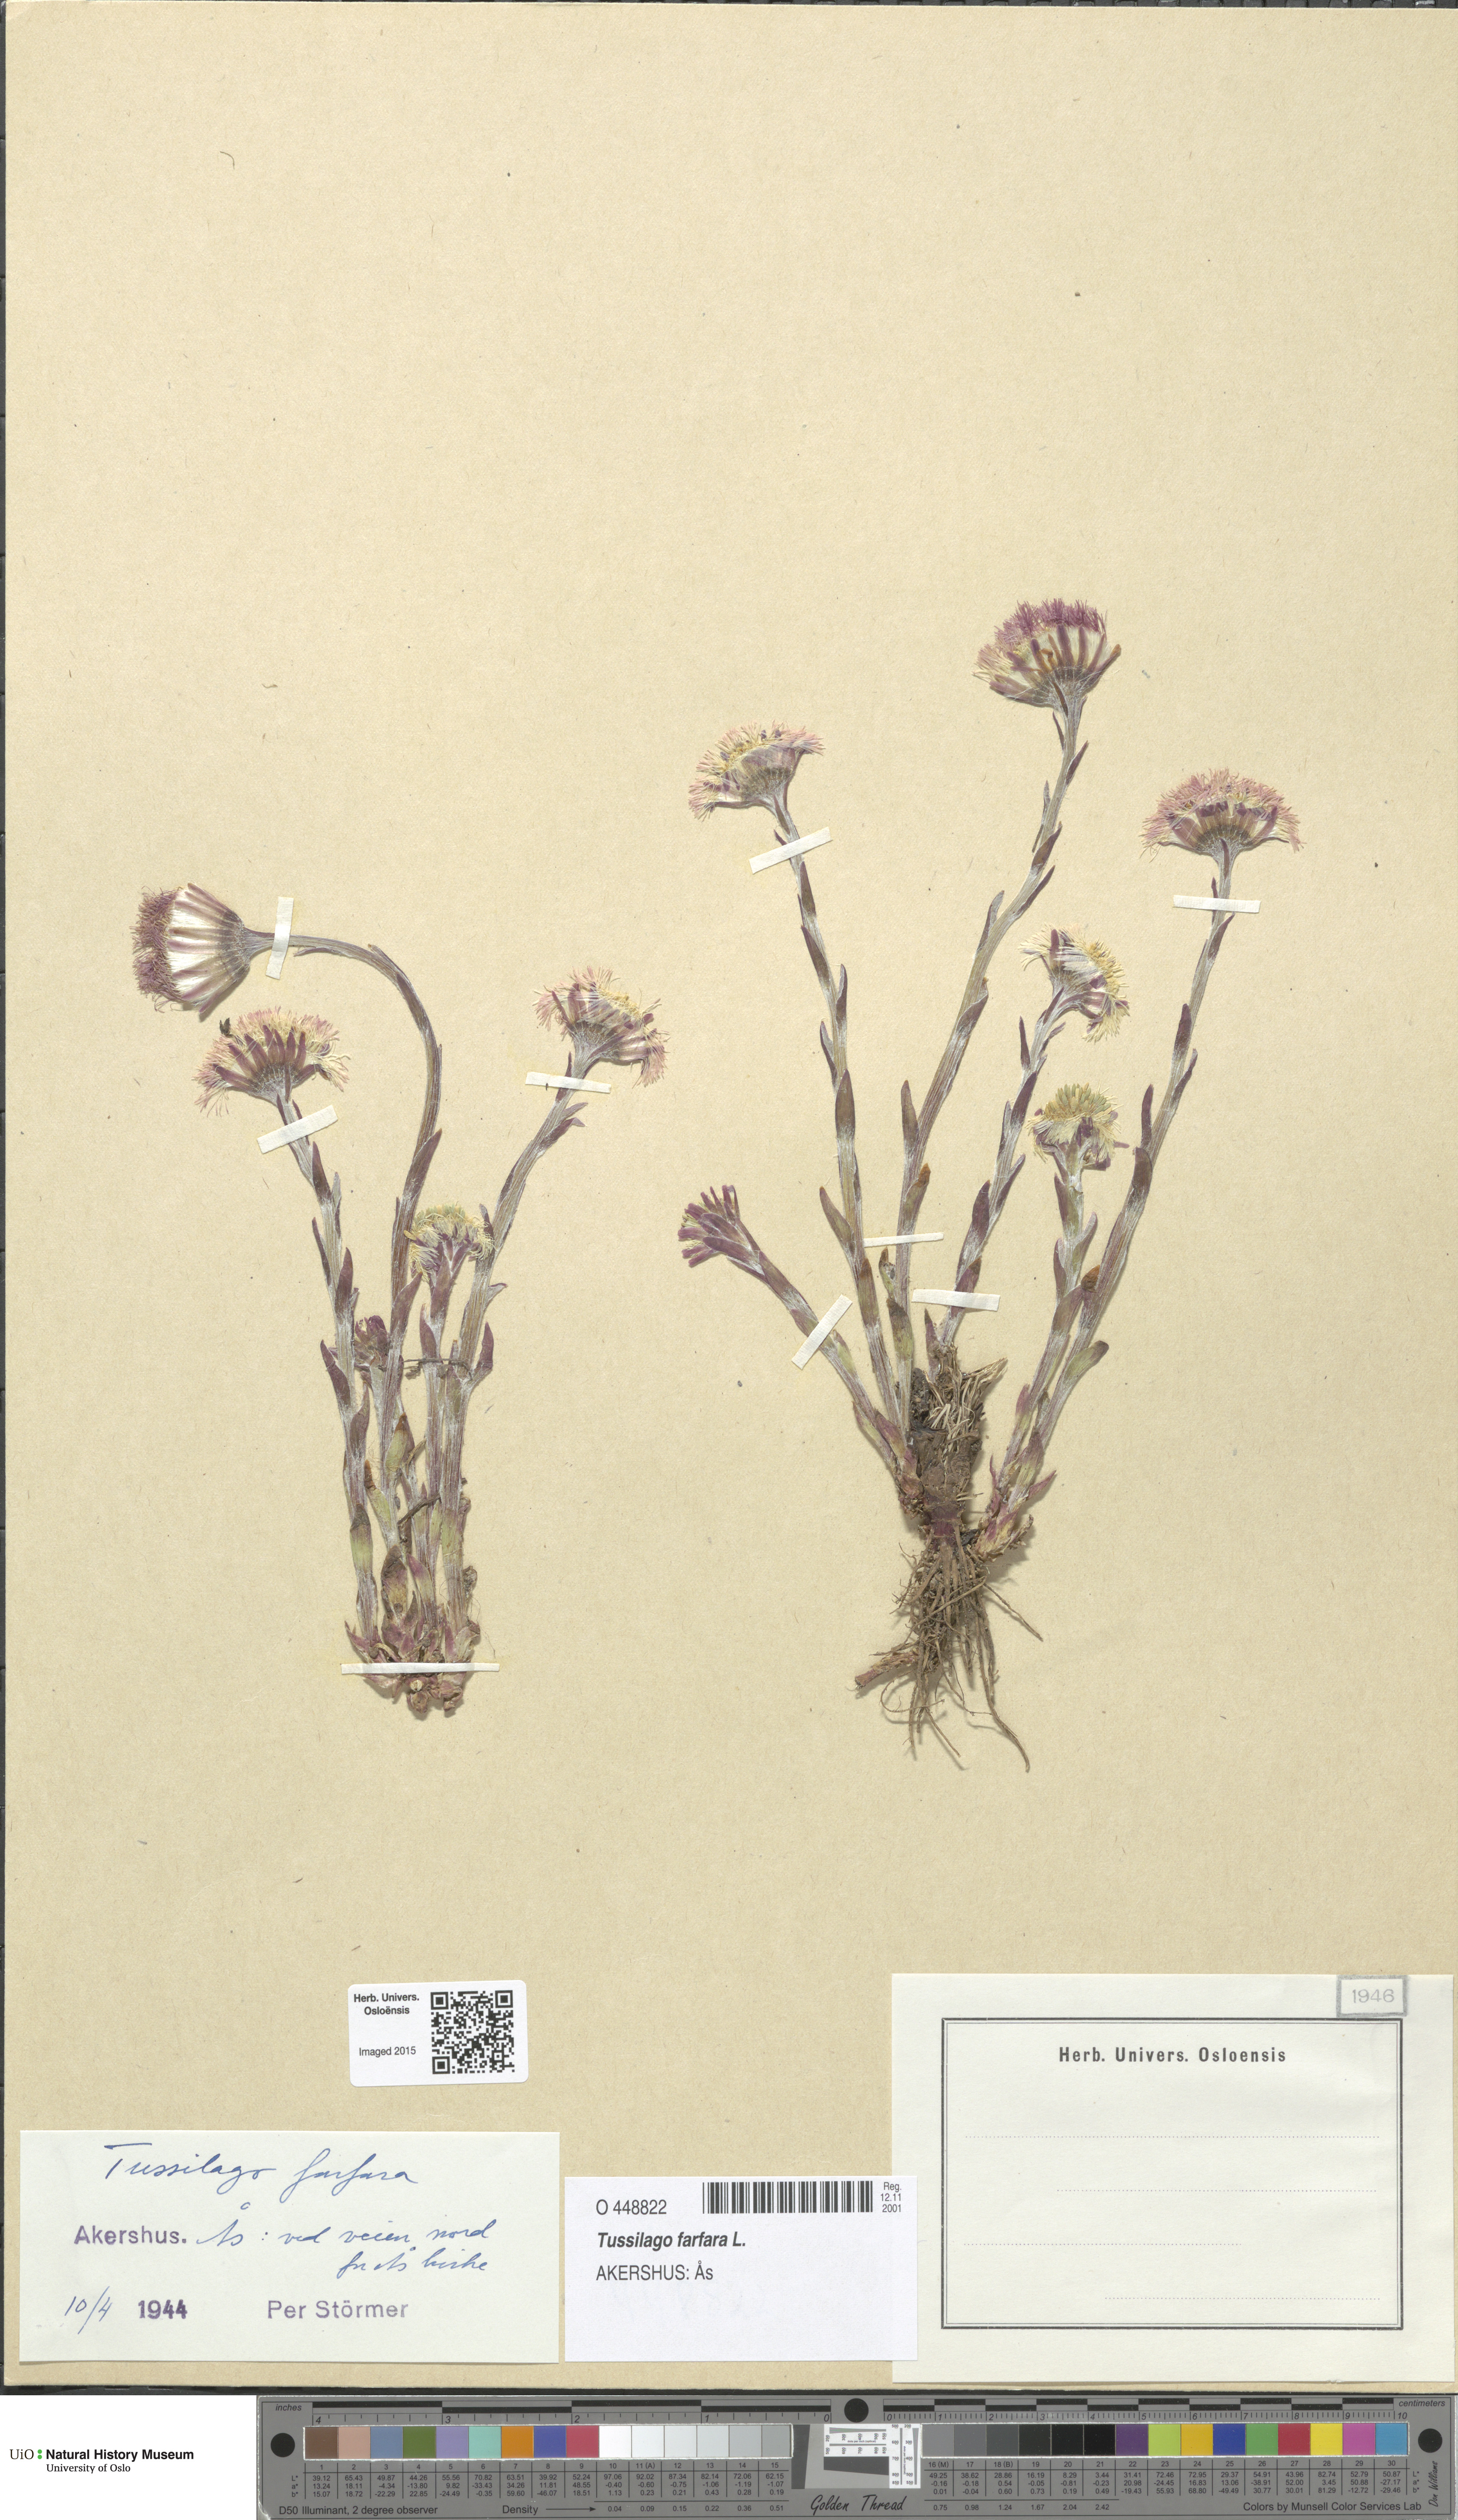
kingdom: Plantae
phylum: Tracheophyta
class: Magnoliopsida
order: Asterales
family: Asteraceae
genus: Tussilago
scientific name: Tussilago farfara
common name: Coltsfoot
